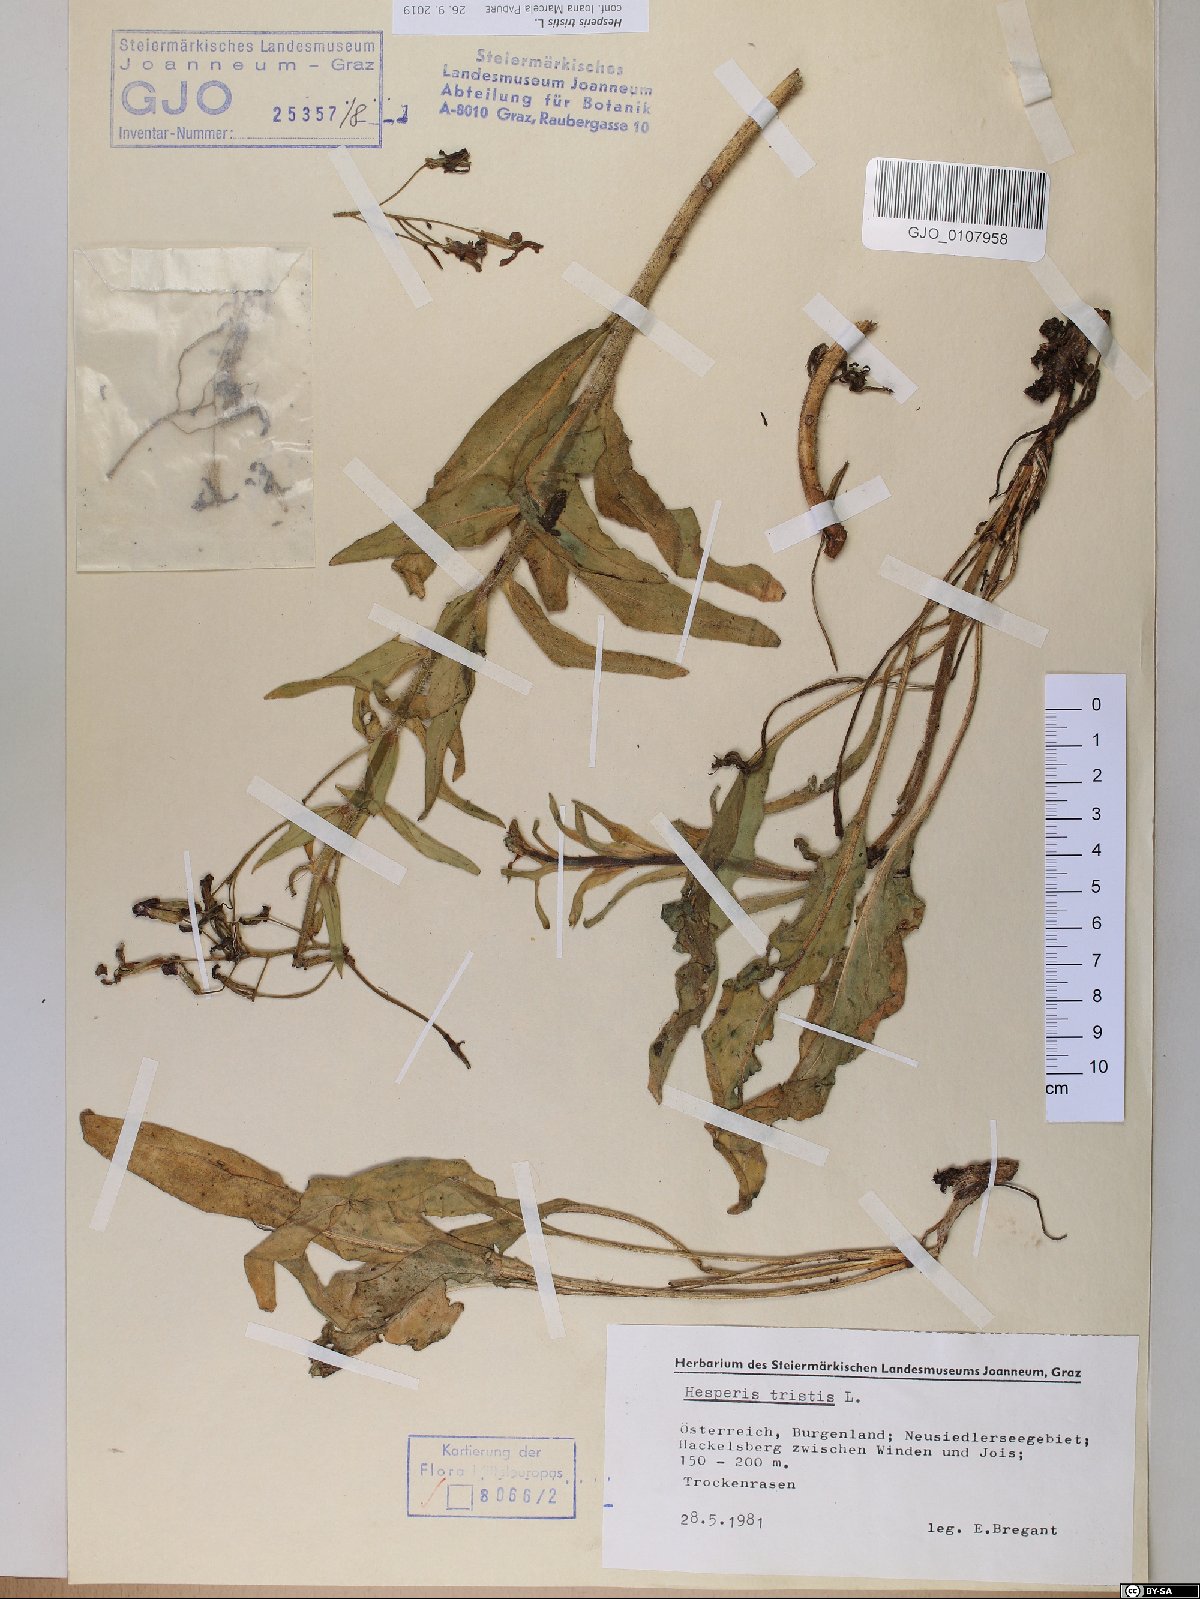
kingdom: Plantae
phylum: Tracheophyta
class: Magnoliopsida
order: Brassicales
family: Brassicaceae
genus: Hesperis
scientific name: Hesperis tristis
